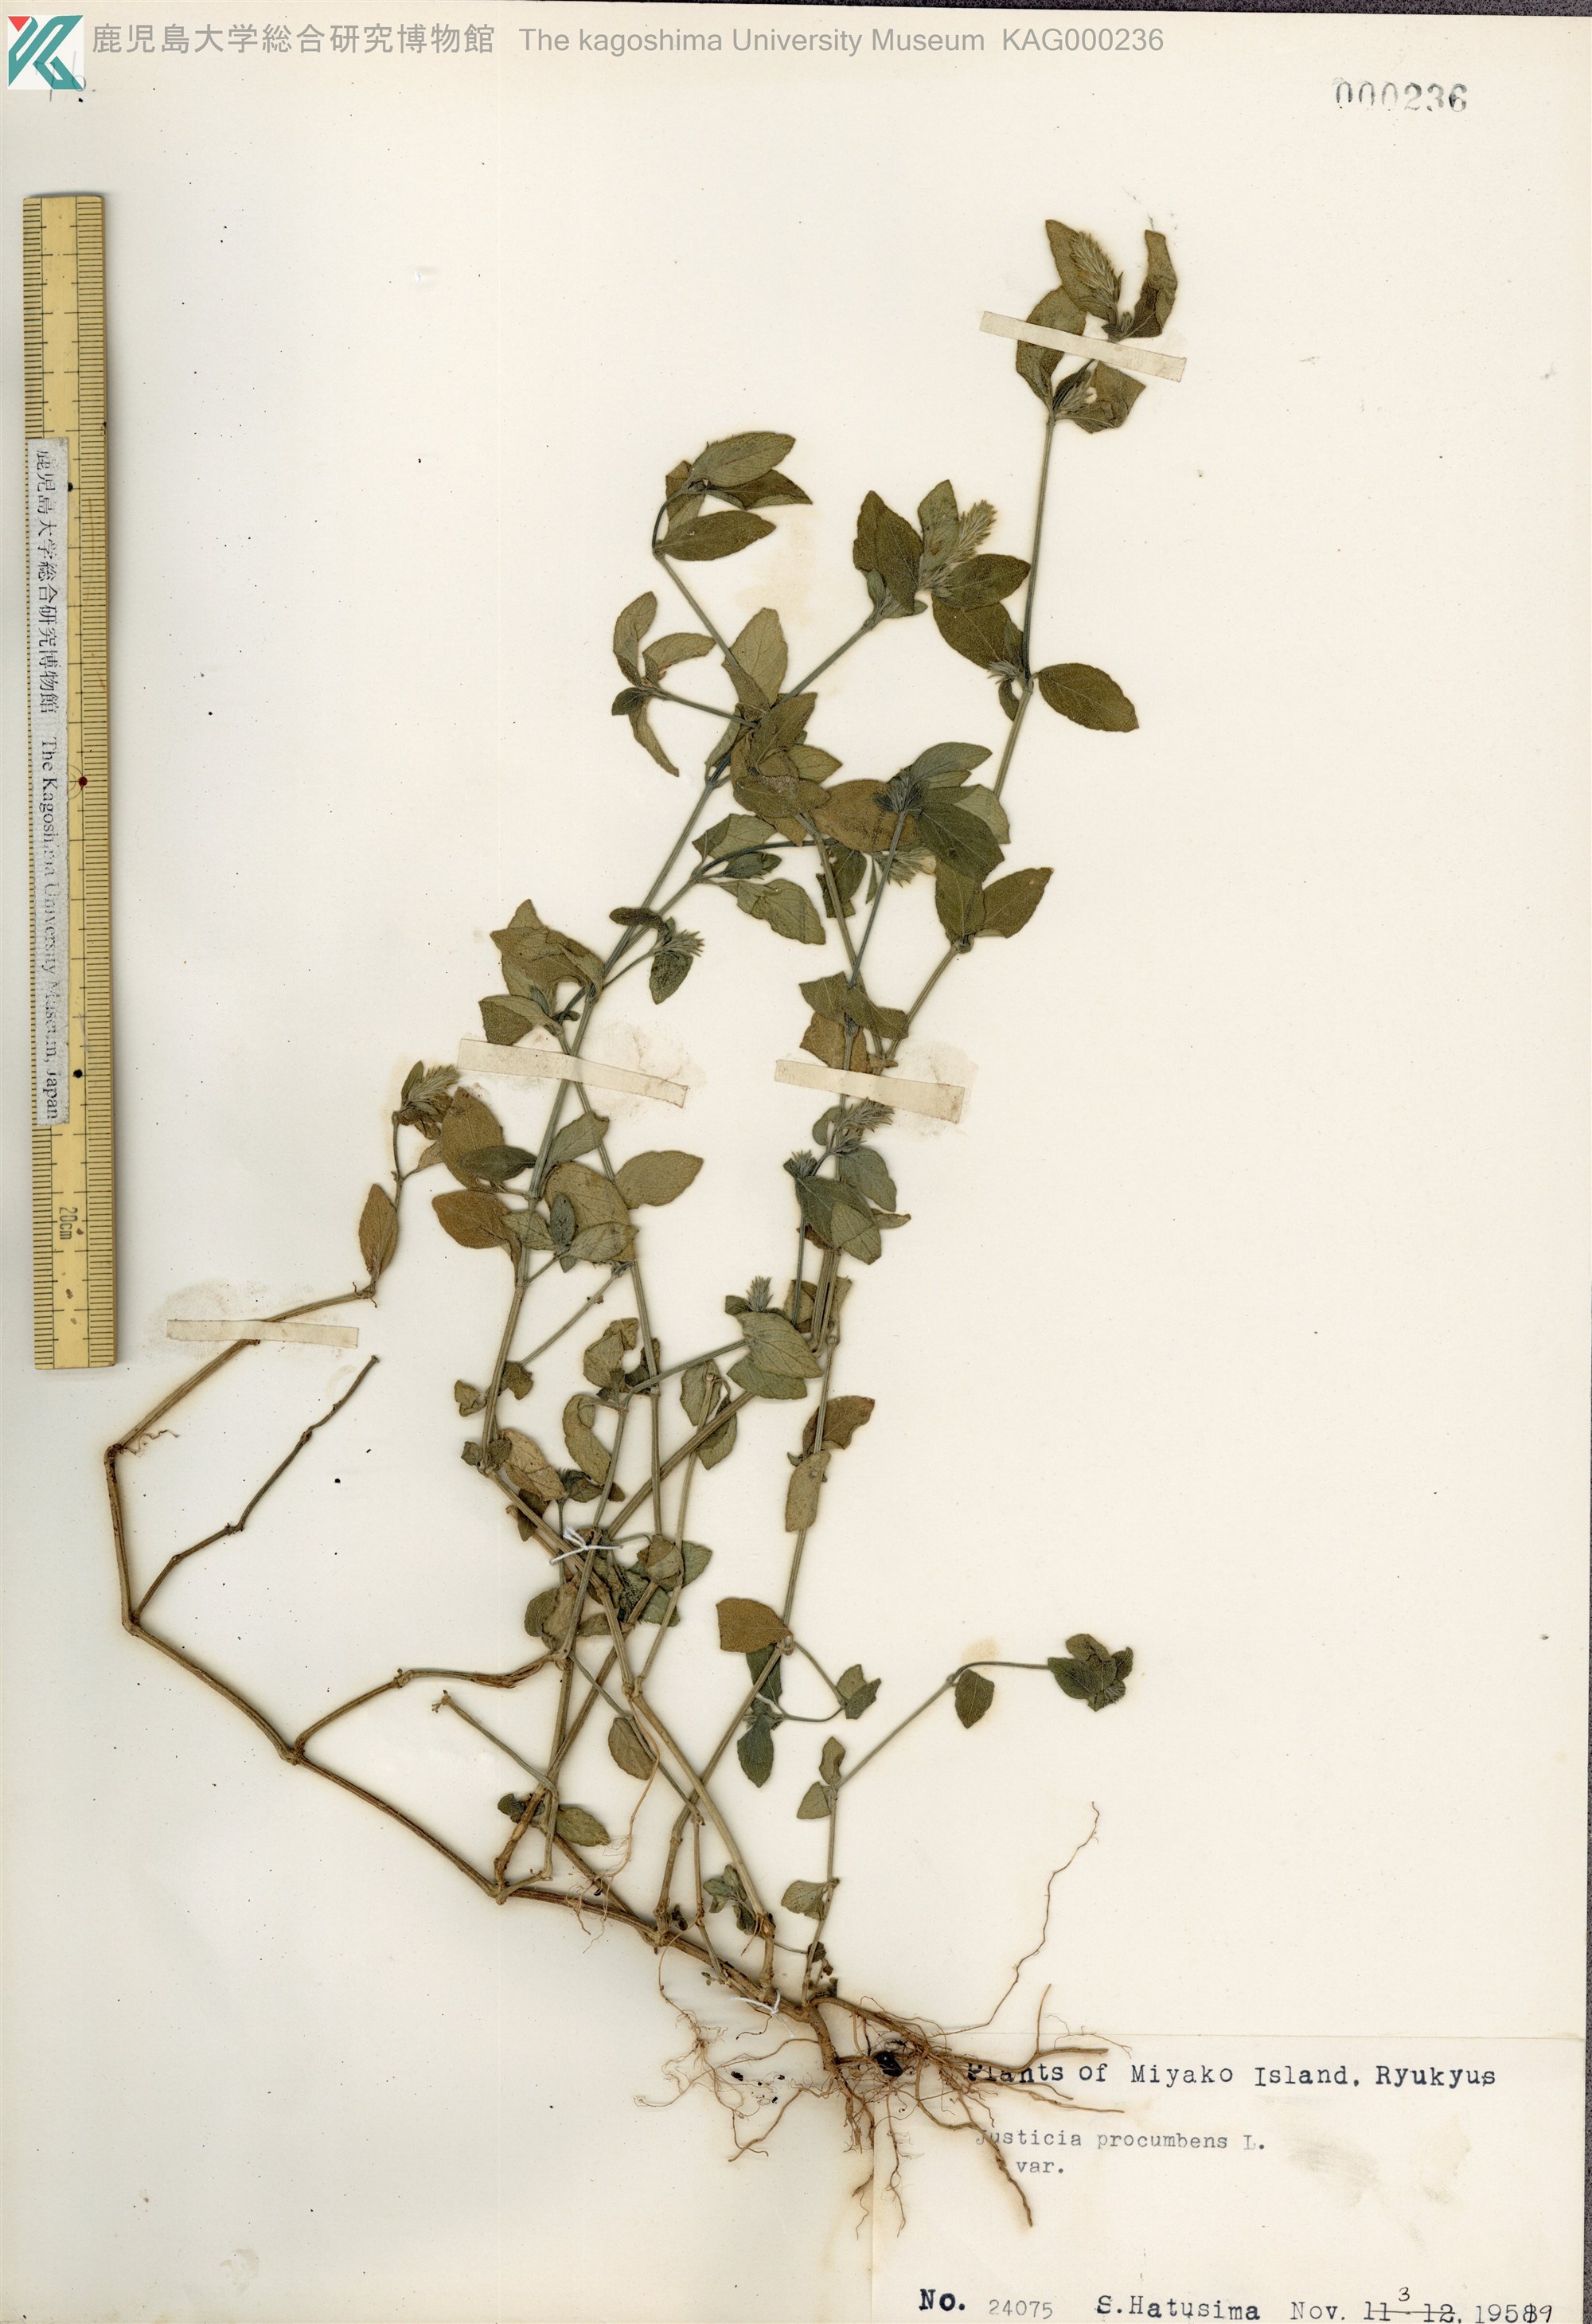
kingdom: Plantae
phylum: Tracheophyta
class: Magnoliopsida
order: Lamiales
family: Acanthaceae
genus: Rostellularia
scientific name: Rostellularia procumbens
